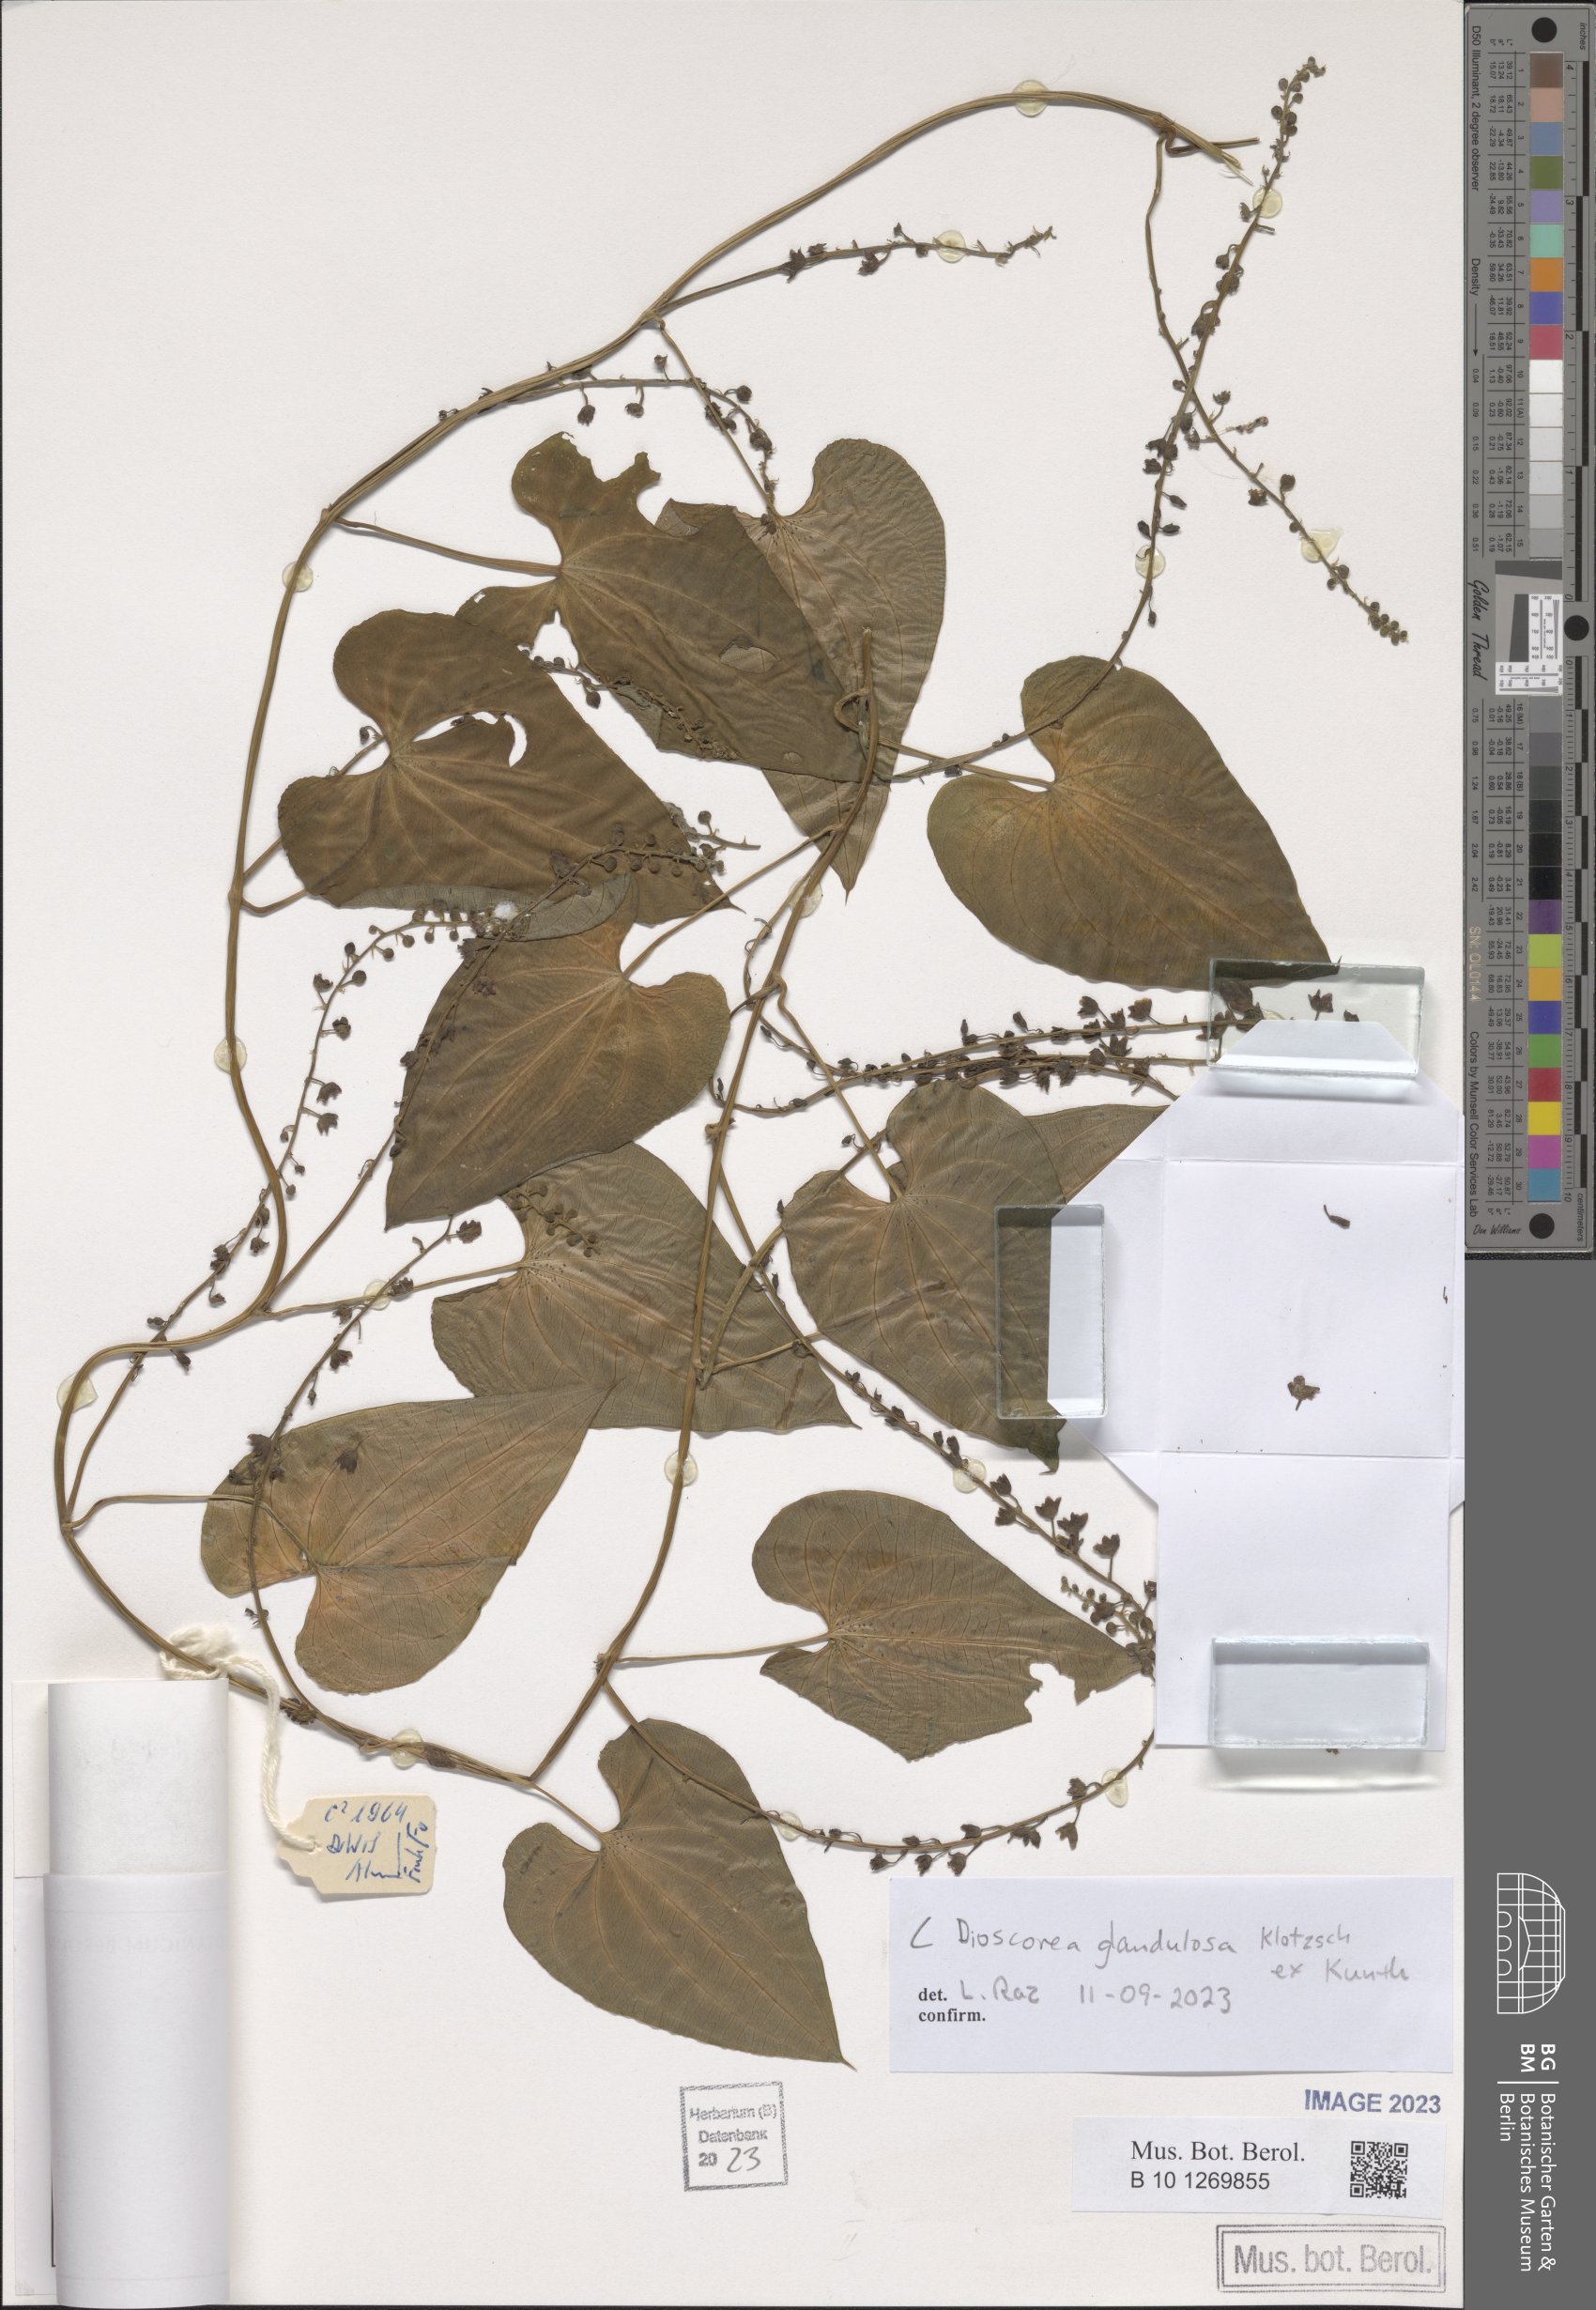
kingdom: Plantae
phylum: Tracheophyta
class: Liliopsida
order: Dioscoreales
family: Dioscoreaceae
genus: Dioscorea
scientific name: Dioscorea glandulosa
